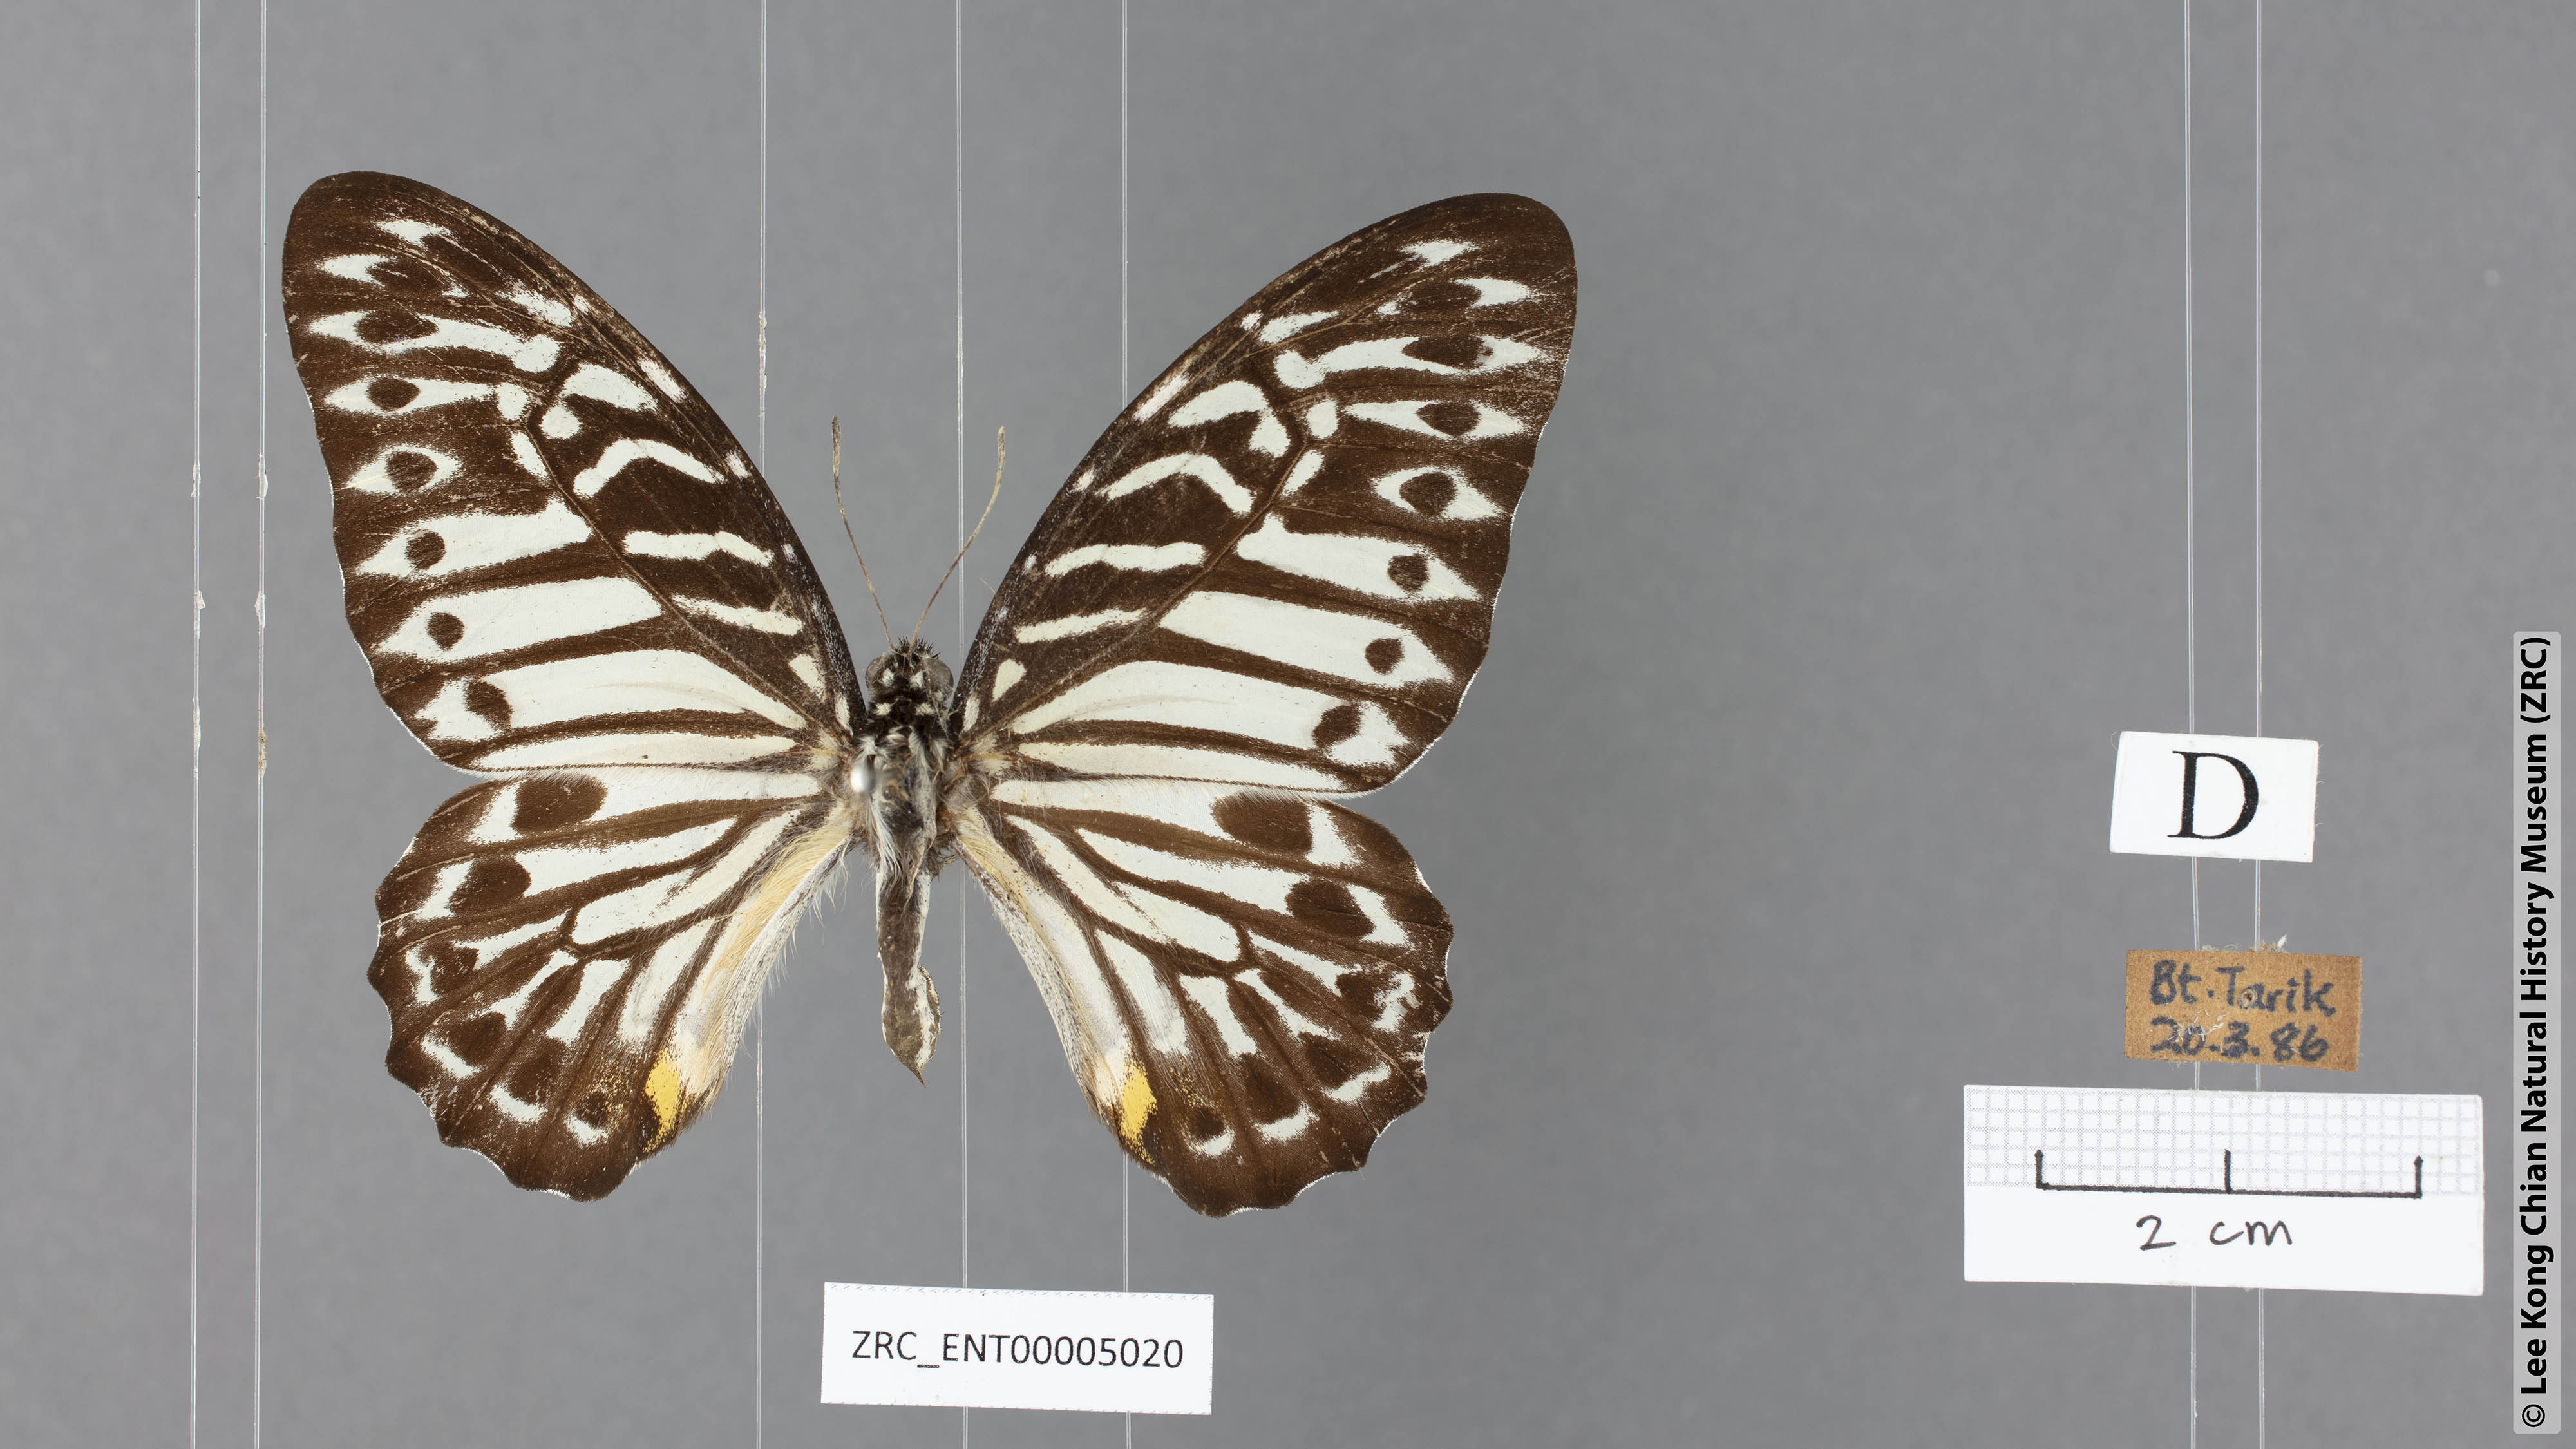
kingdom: Animalia
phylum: Arthropoda
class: Insecta
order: Lepidoptera
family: Papilionidae
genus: Graphium
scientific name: Graphium delesserti
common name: Malayan zebra
